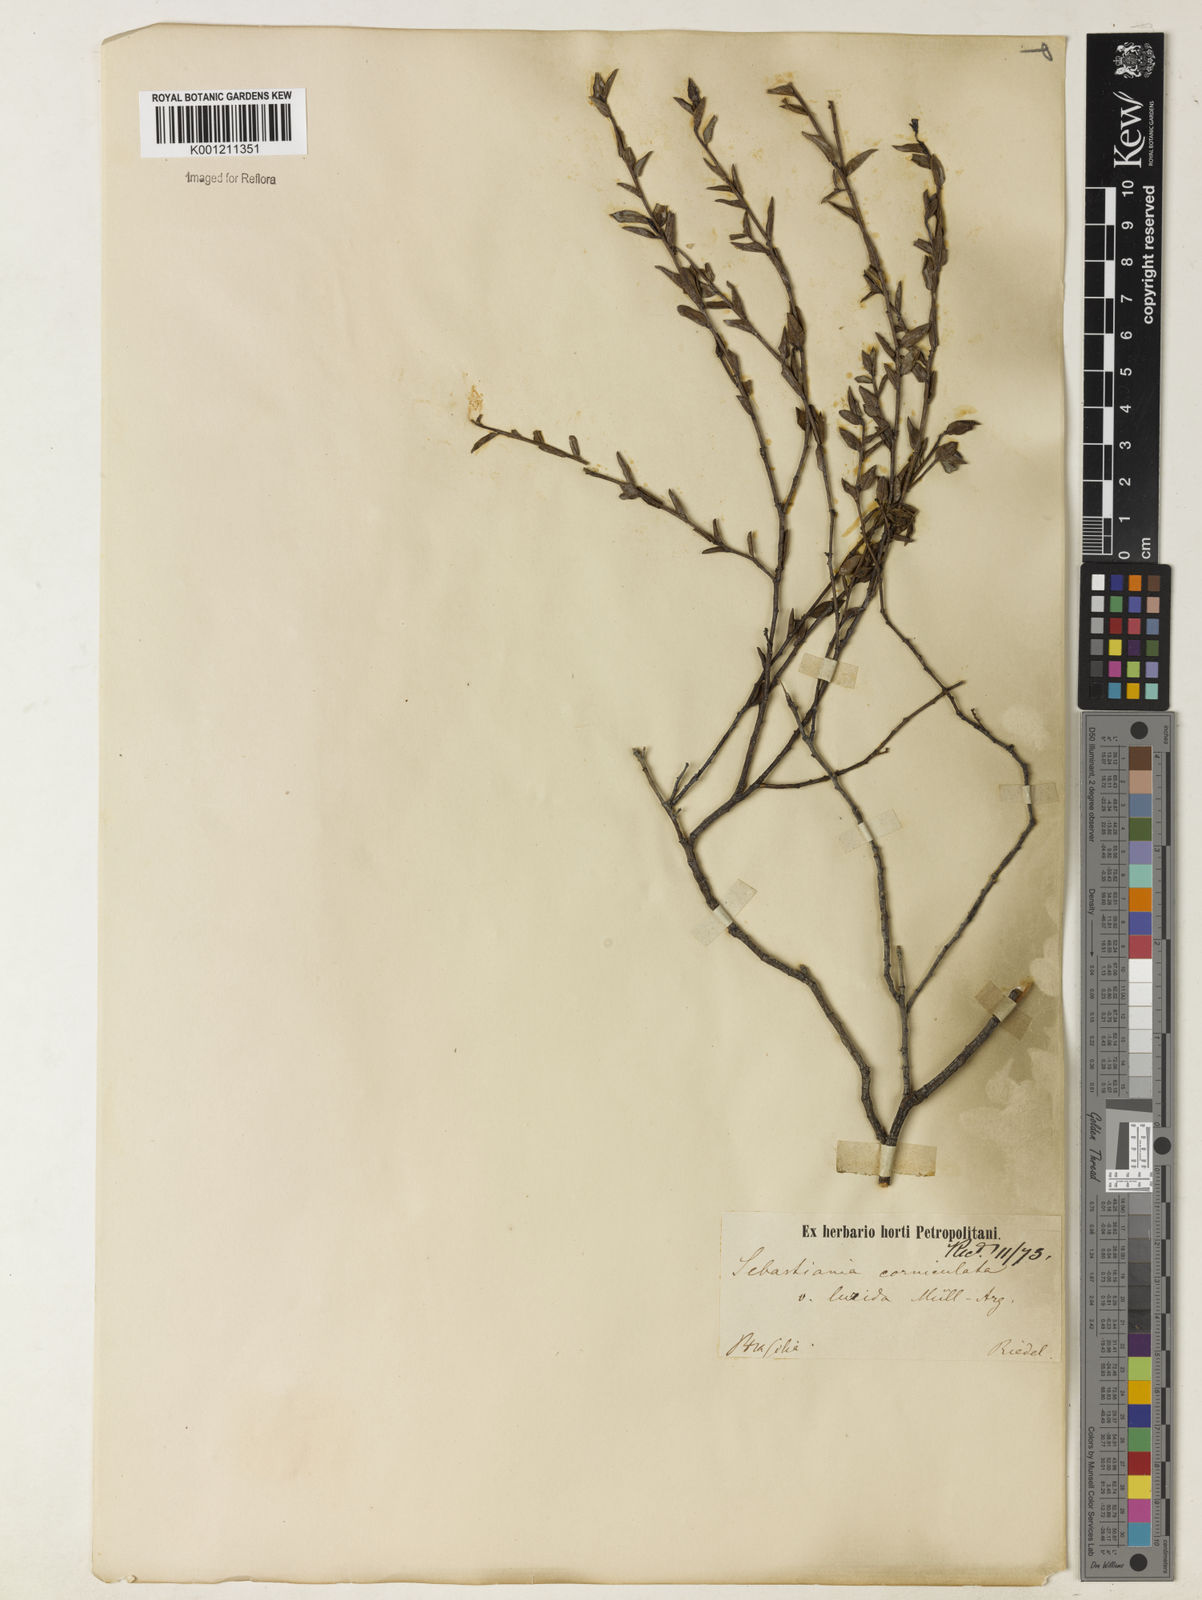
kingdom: Plantae
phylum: Tracheophyta
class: Magnoliopsida
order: Malpighiales
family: Euphorbiaceae
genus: Microstachys
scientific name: Microstachys corniculata
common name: Hato tejas
